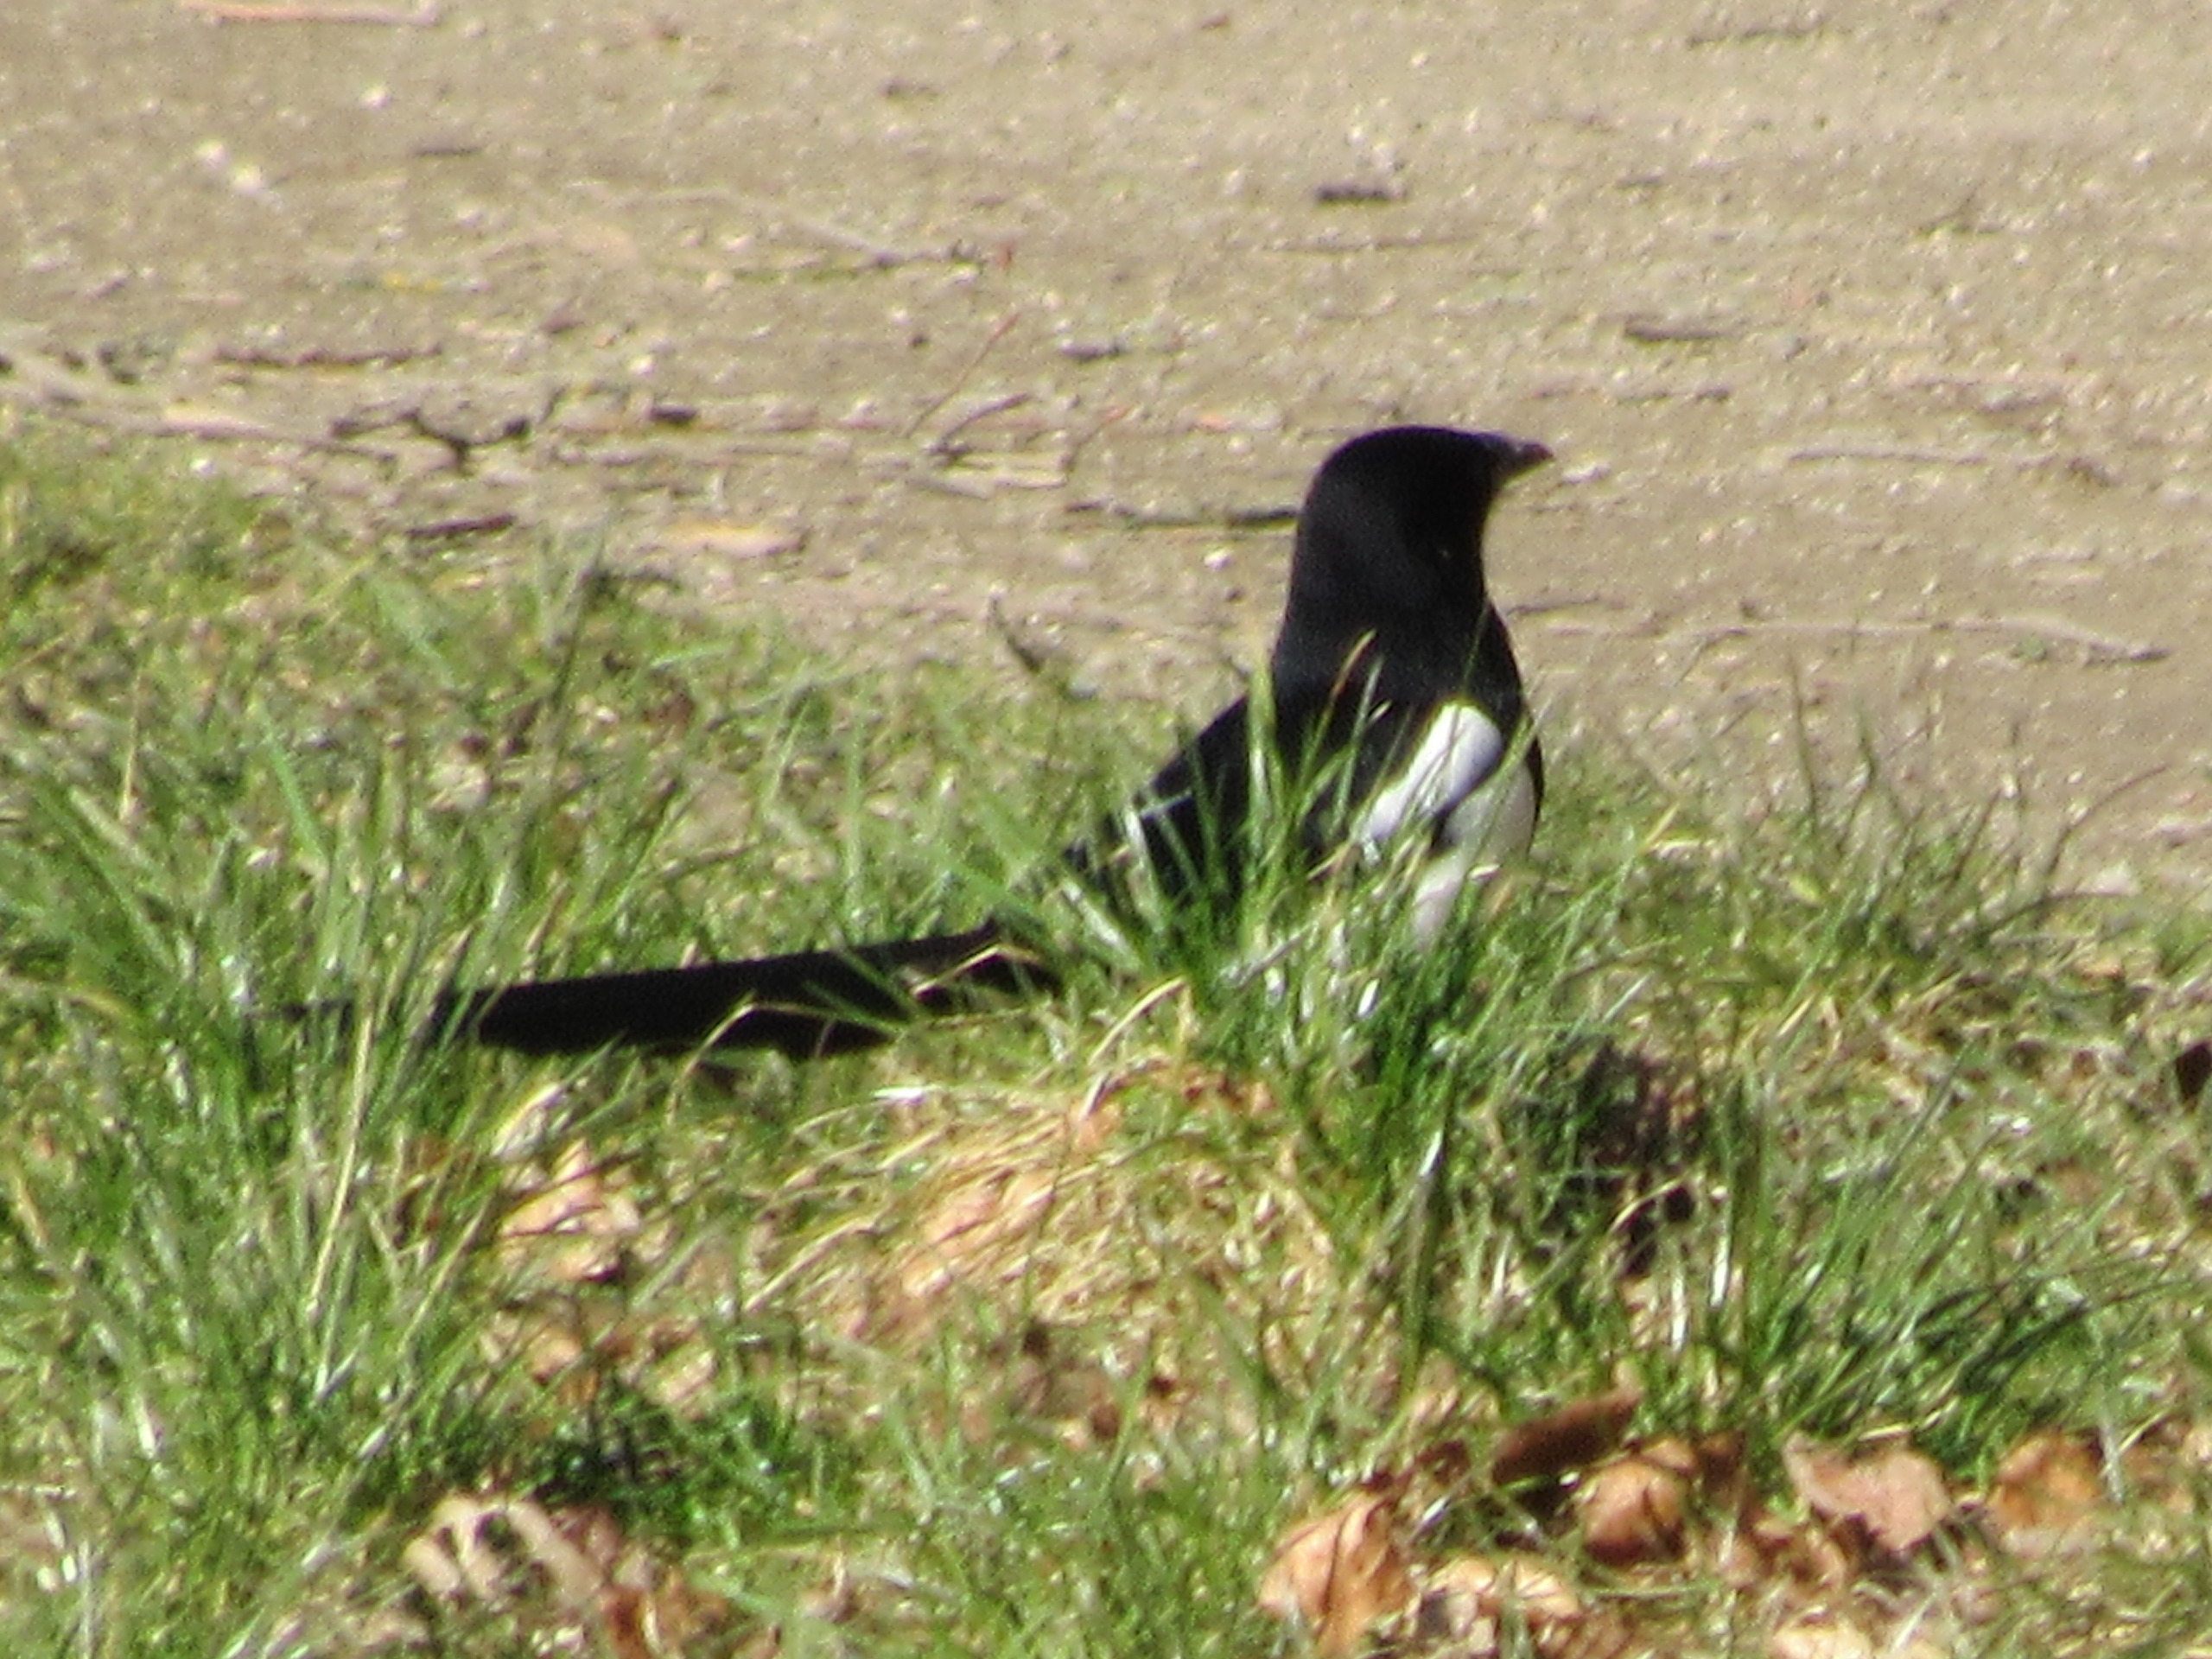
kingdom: Animalia
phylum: Chordata
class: Aves
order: Passeriformes
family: Corvidae
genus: Pica
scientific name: Pica pica
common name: Husskade
